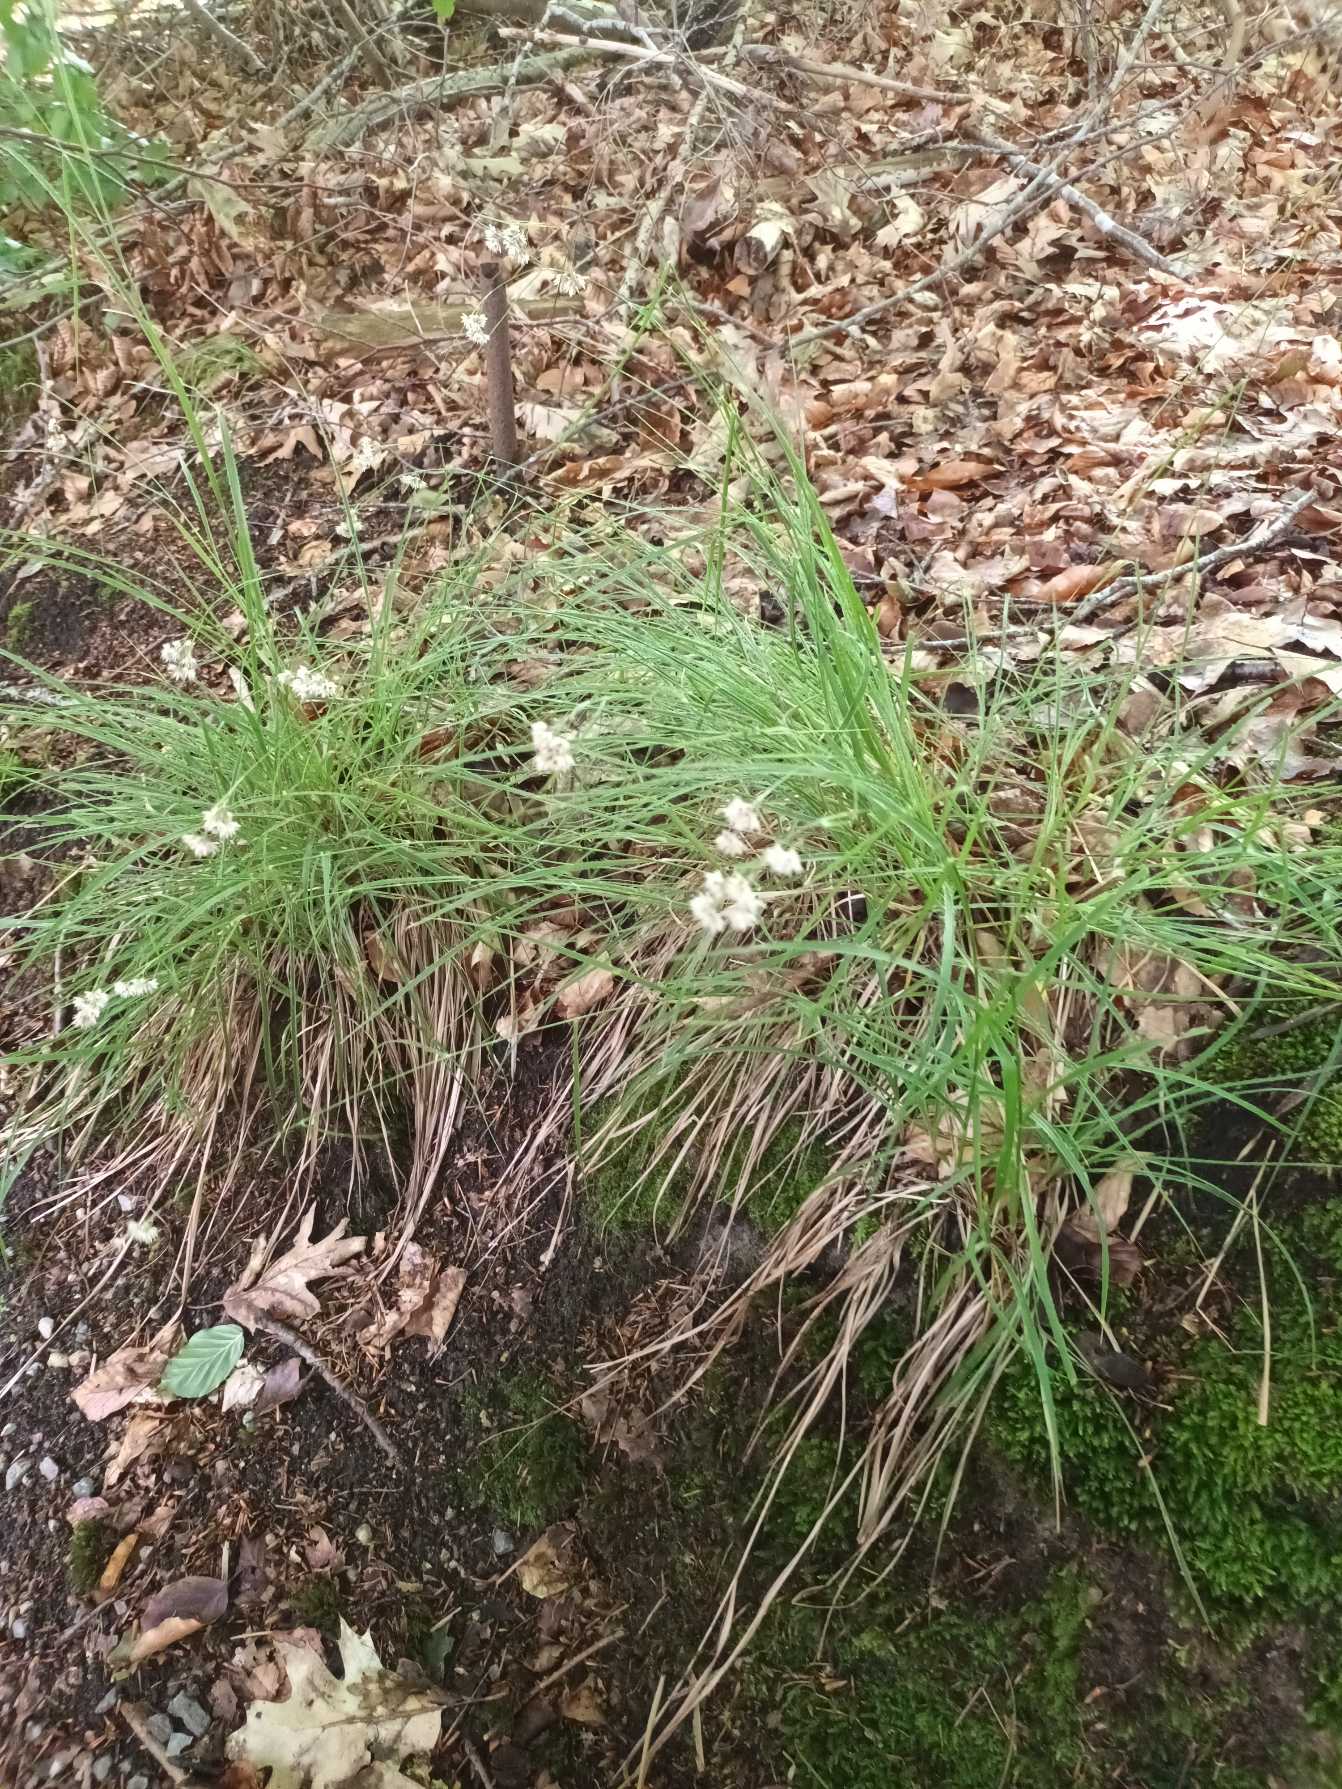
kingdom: Plantae
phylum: Tracheophyta
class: Liliopsida
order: Poales
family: Juncaceae
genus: Luzula
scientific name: Luzula nivea
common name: Snehvid frytle
